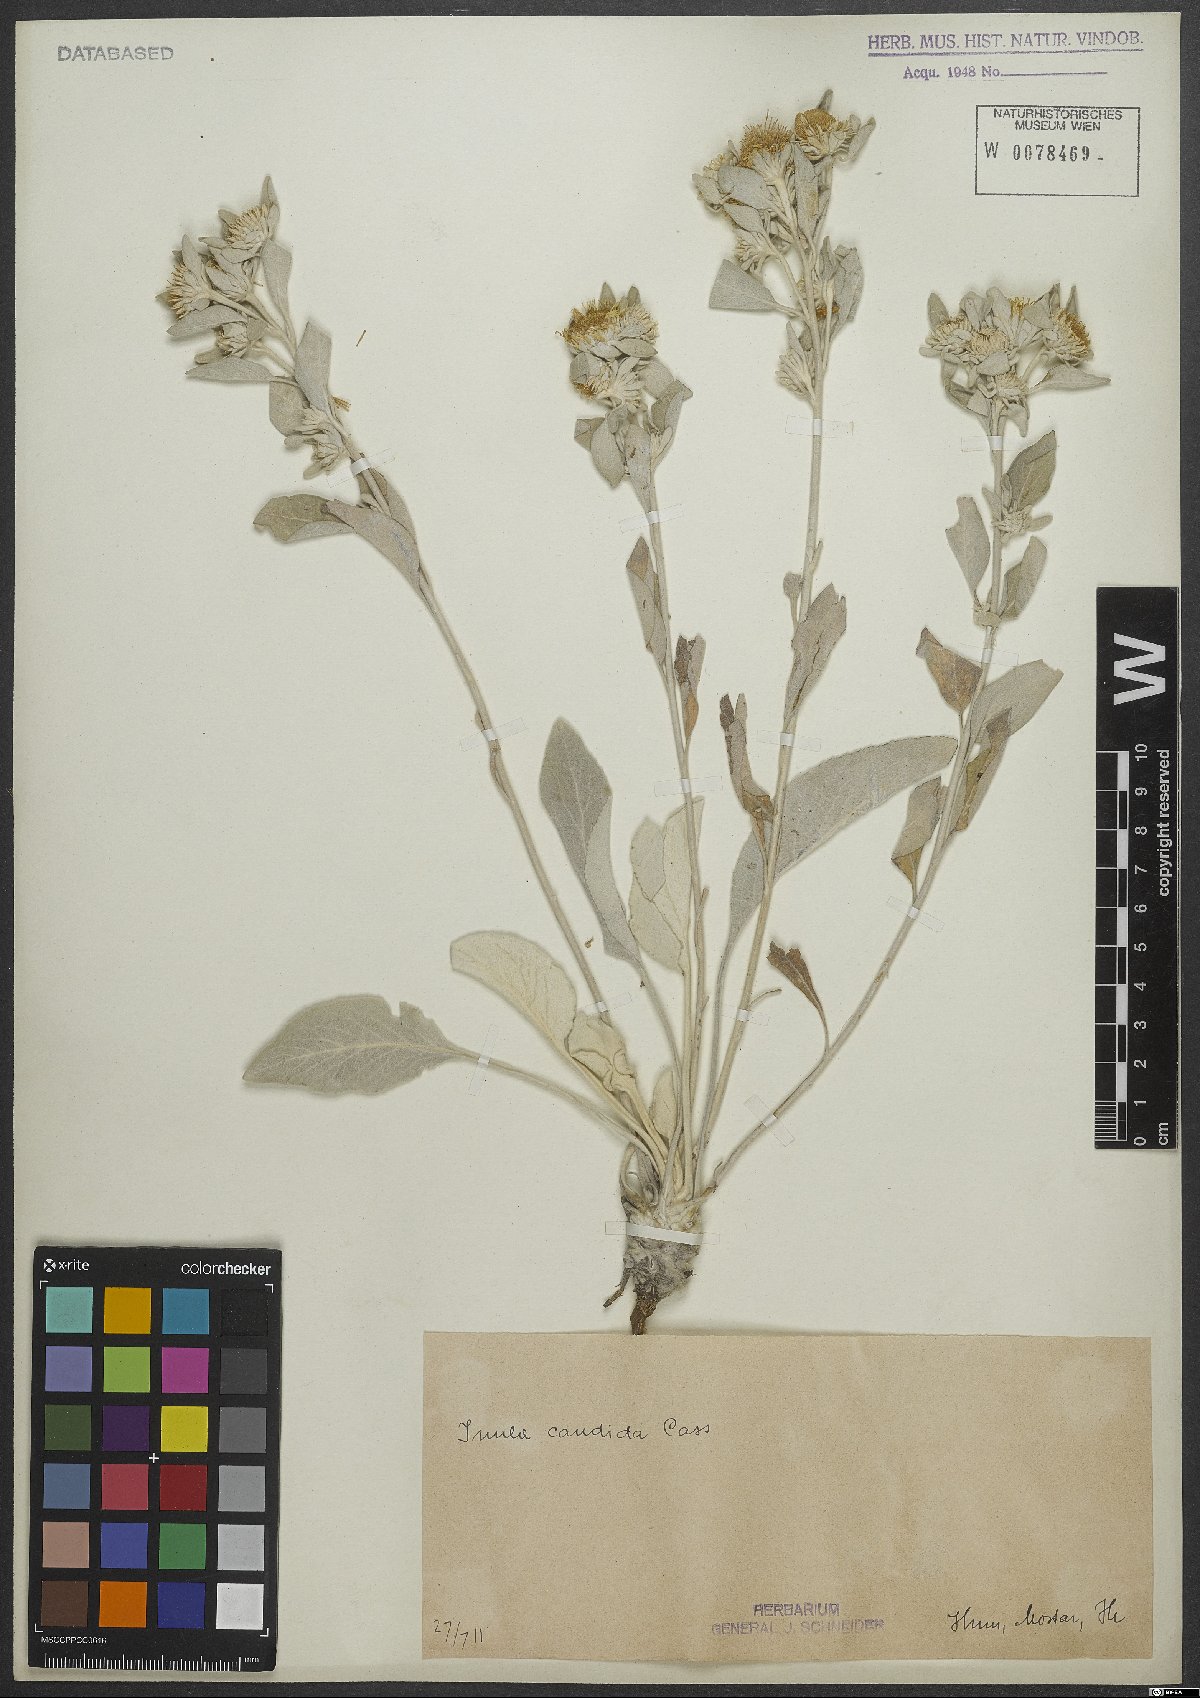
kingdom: Plantae
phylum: Tracheophyta
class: Magnoliopsida
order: Asterales
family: Asteraceae
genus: Pentanema
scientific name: Pentanema verbascifolium
